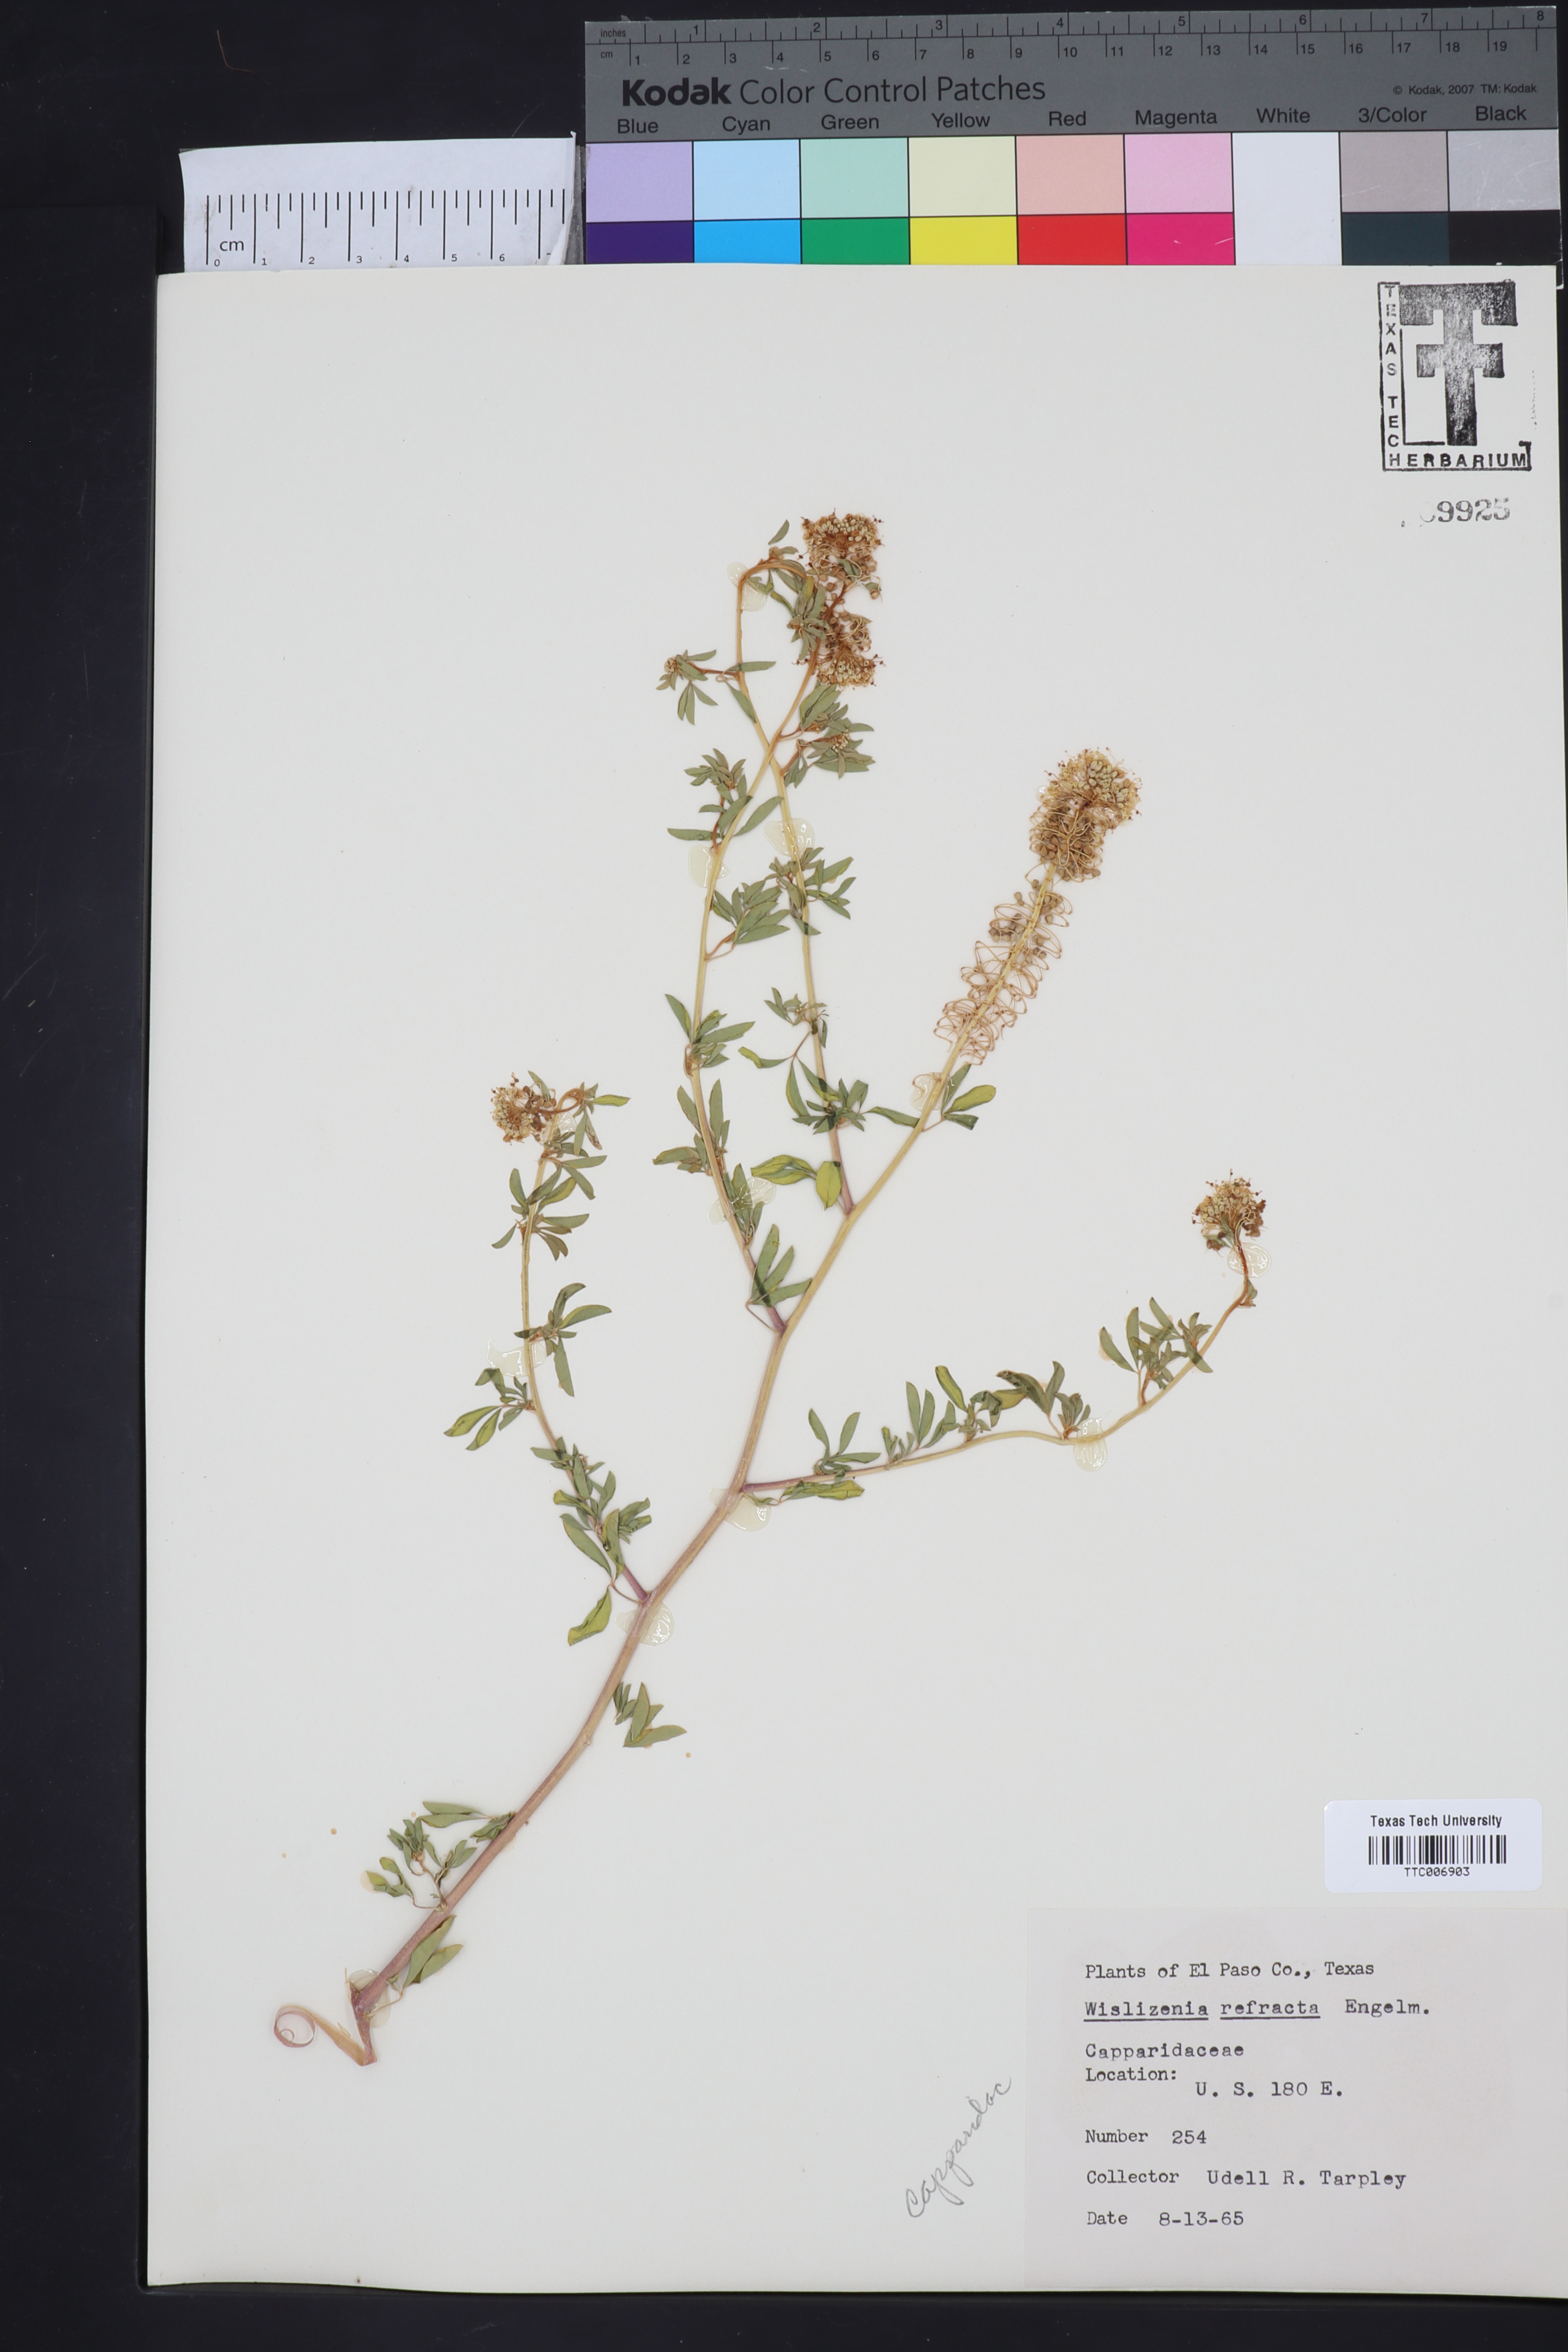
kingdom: Plantae
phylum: Tracheophyta
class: Magnoliopsida
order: Brassicales
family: Cleomaceae
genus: Cleomella
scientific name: Cleomella refracta
